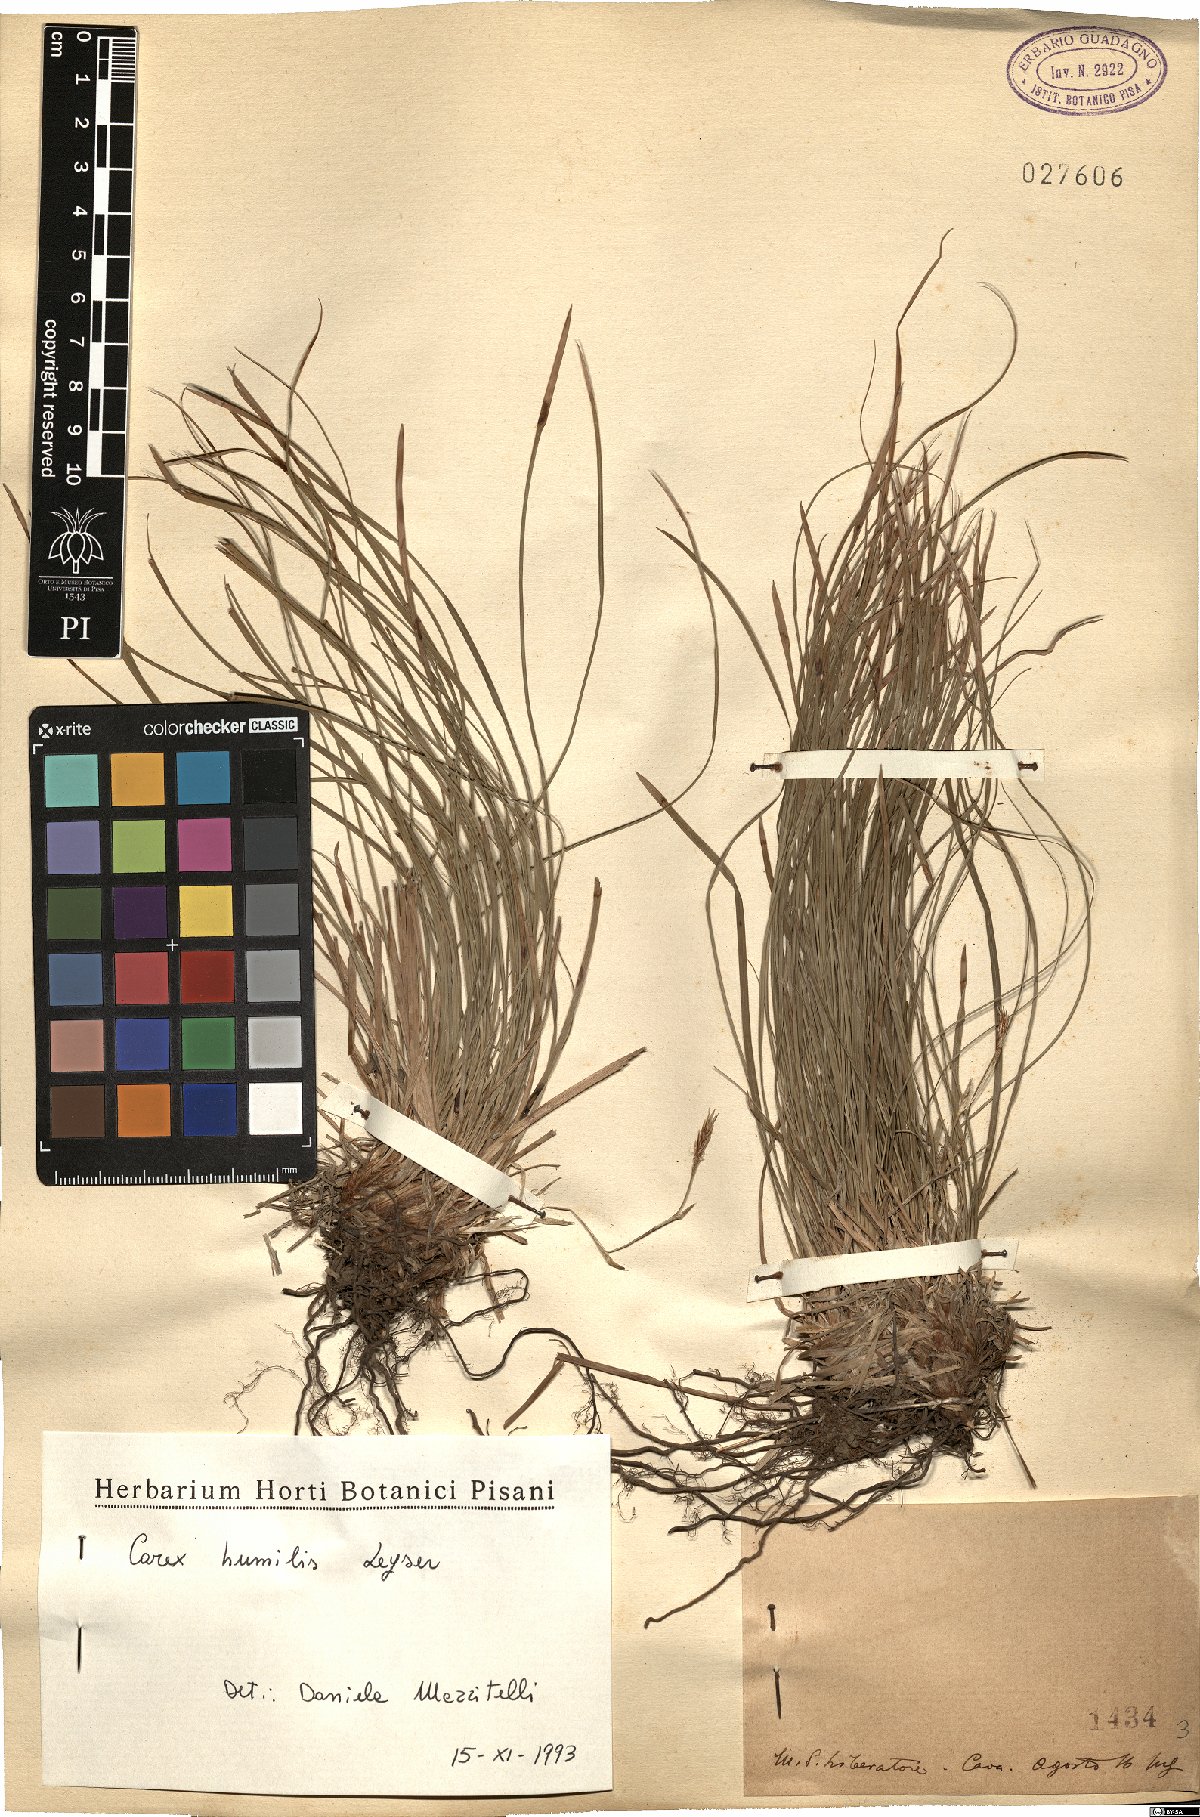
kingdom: Plantae
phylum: Tracheophyta
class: Liliopsida
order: Poales
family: Cyperaceae
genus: Carex
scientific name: Carex humilis
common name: Dwarf sedge
